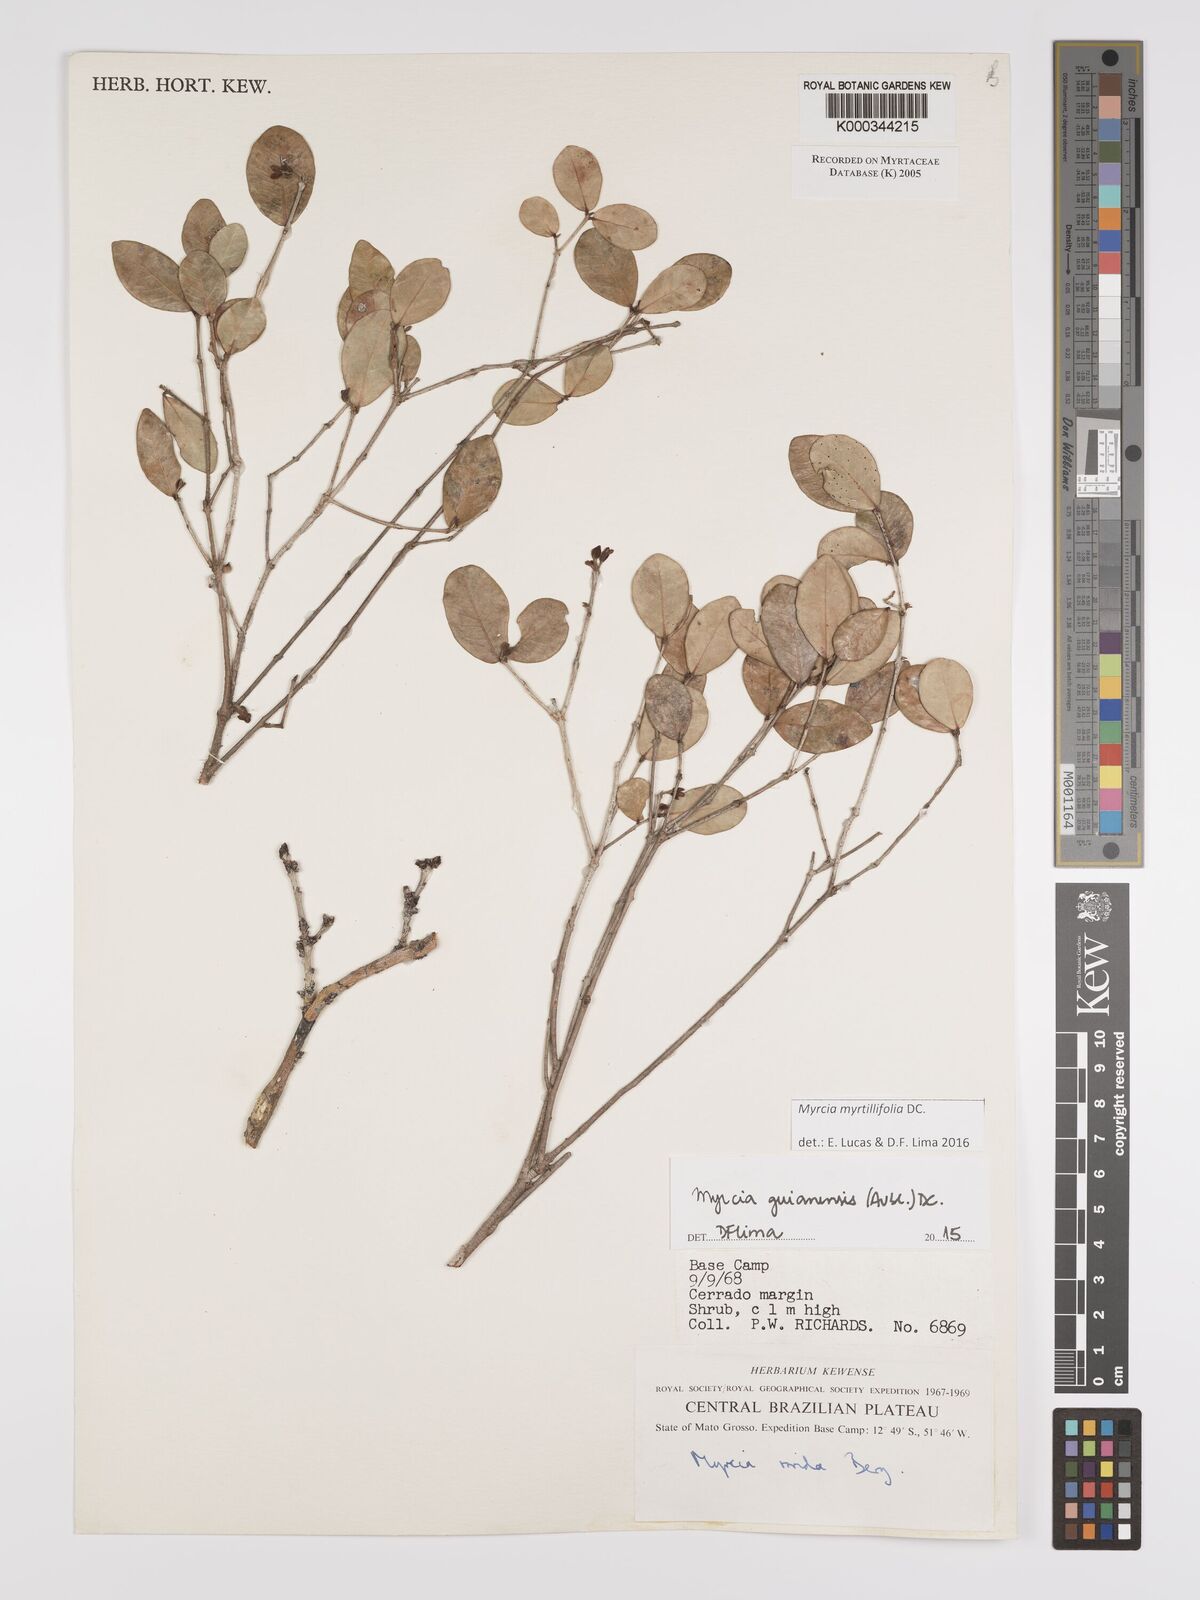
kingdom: Plantae
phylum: Tracheophyta
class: Magnoliopsida
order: Myrtales
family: Myrtaceae
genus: Myrcia
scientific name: Myrcia guianensis
